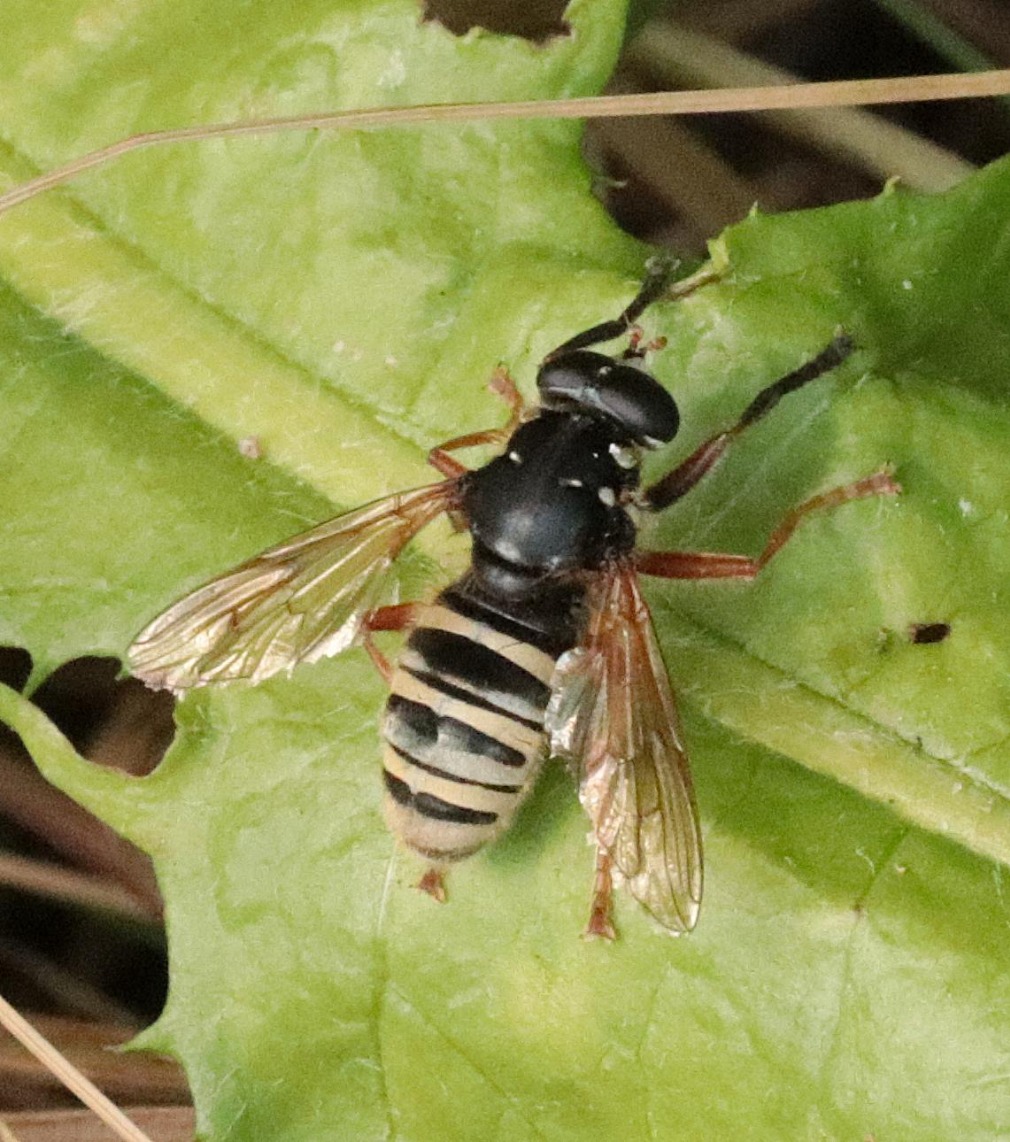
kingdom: Animalia
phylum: Arthropoda
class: Insecta
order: Diptera
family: Syrphidae
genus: Temnostoma
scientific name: Temnostoma apiforme
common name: Bredbåndet vedsvirreflue
